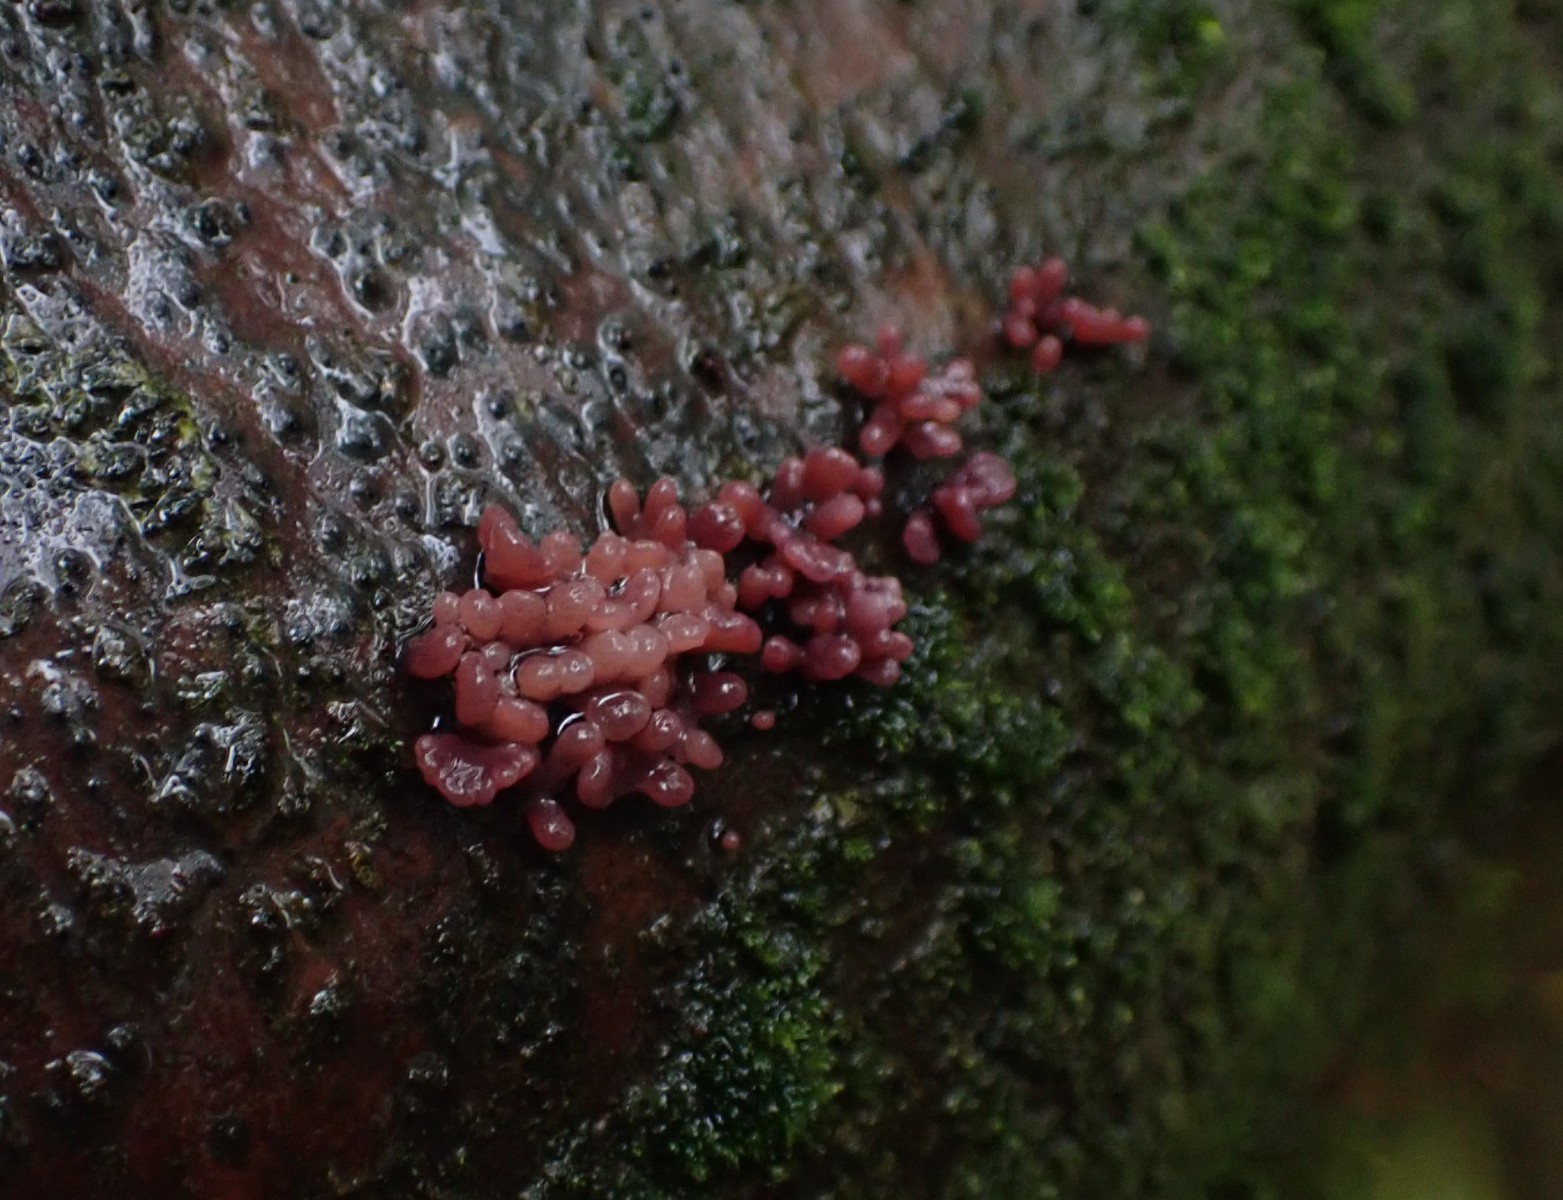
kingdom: Fungi
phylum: Ascomycota
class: Leotiomycetes
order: Helotiales
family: Gelatinodiscaceae
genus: Ascocoryne
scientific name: Ascocoryne sarcoides
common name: rødlilla sejskive
